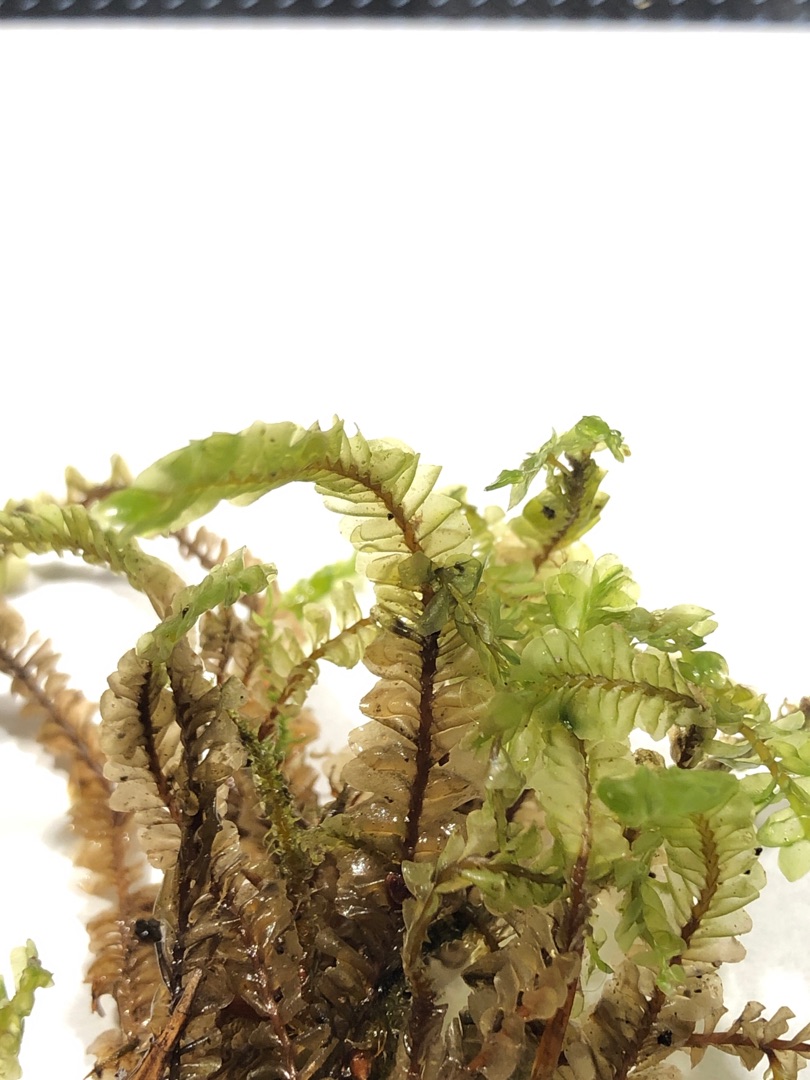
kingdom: Plantae
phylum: Marchantiophyta
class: Jungermanniopsida
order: Jungermanniales
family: Plagiochilaceae
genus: Plagiochila
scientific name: Plagiochila asplenioides
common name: Radeløv-hindeblad
